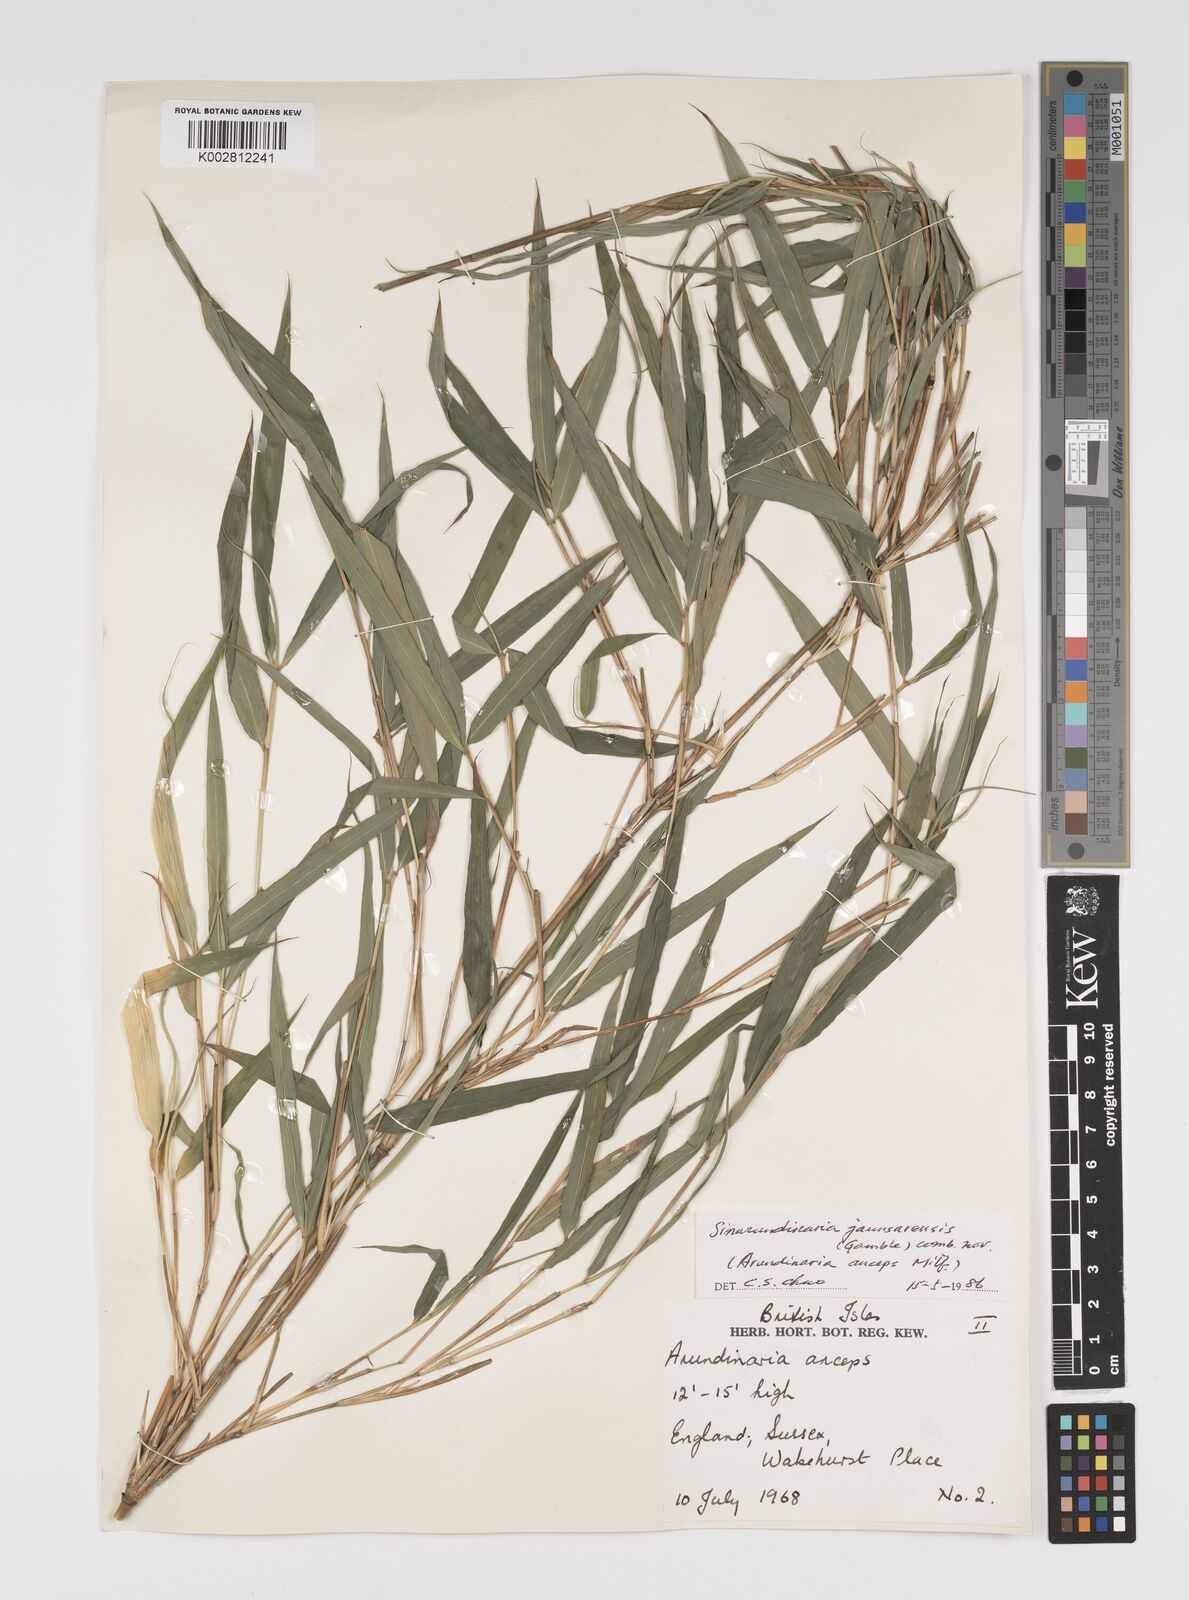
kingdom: Plantae
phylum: Tracheophyta
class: Liliopsida
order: Poales
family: Poaceae
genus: Yushania
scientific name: Yushania
